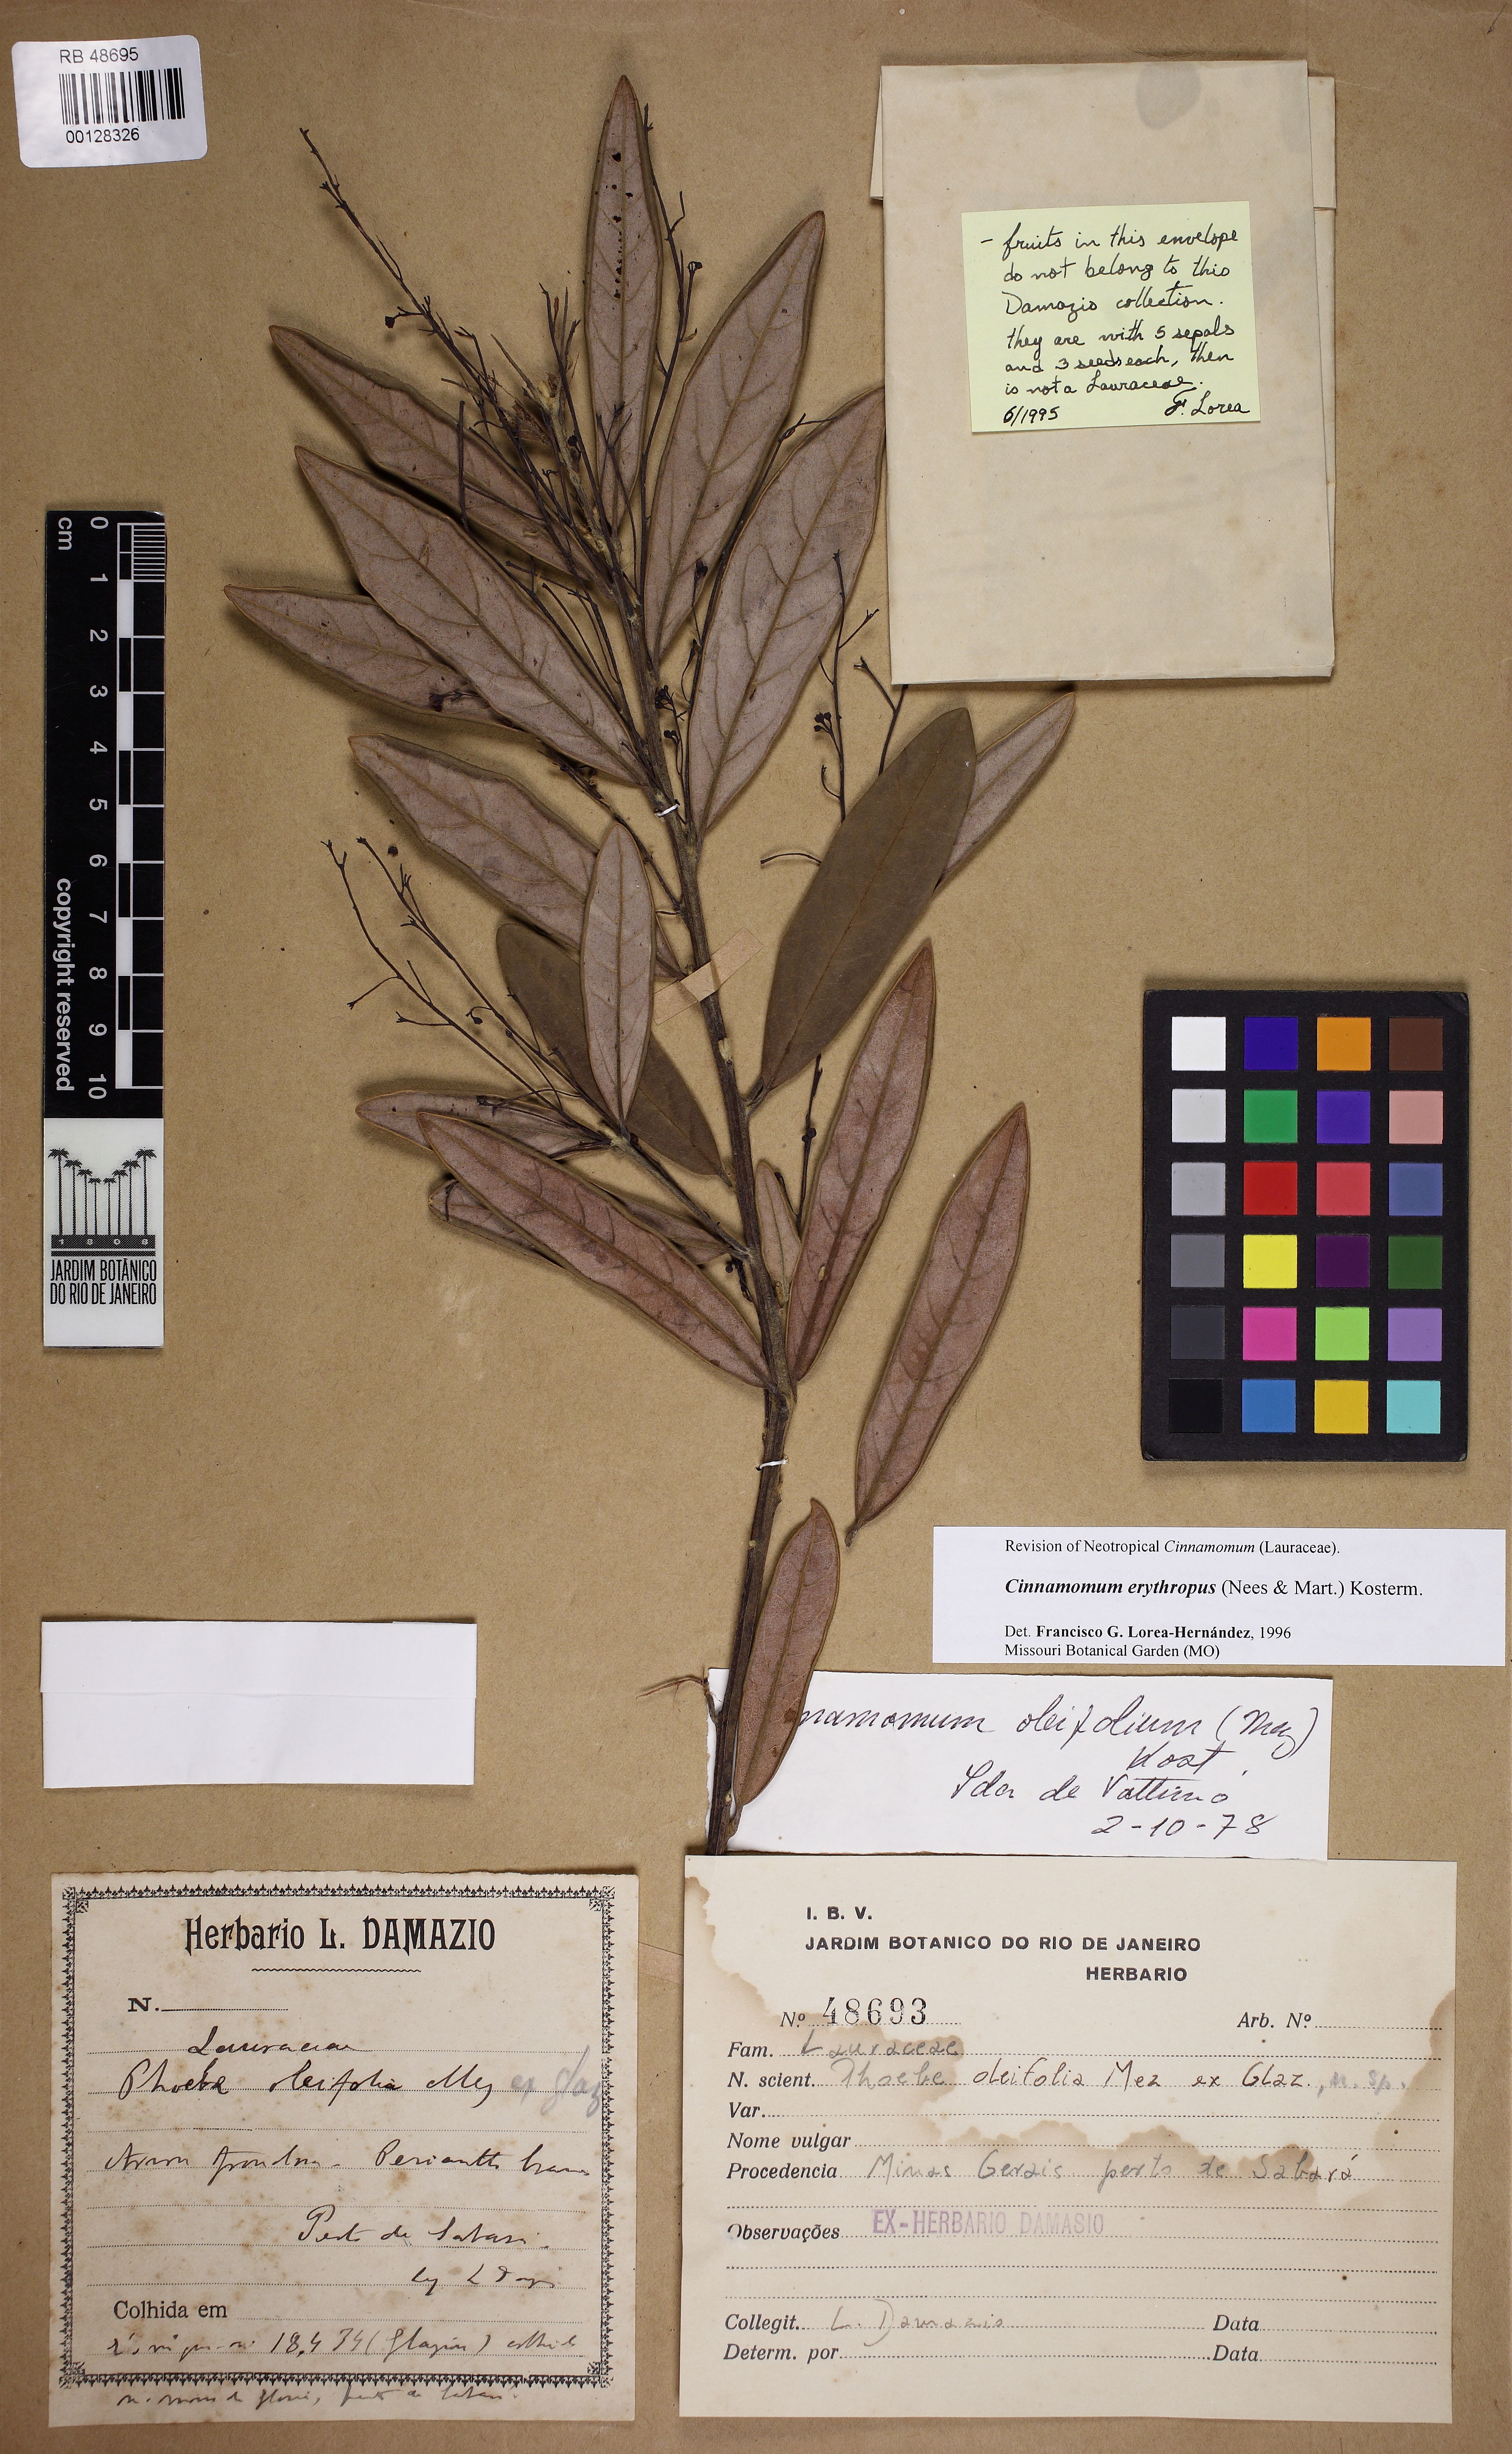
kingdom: Plantae
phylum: Tracheophyta
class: Magnoliopsida
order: Laurales
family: Lauraceae
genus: Aiouea
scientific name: Aiouea erythropus
